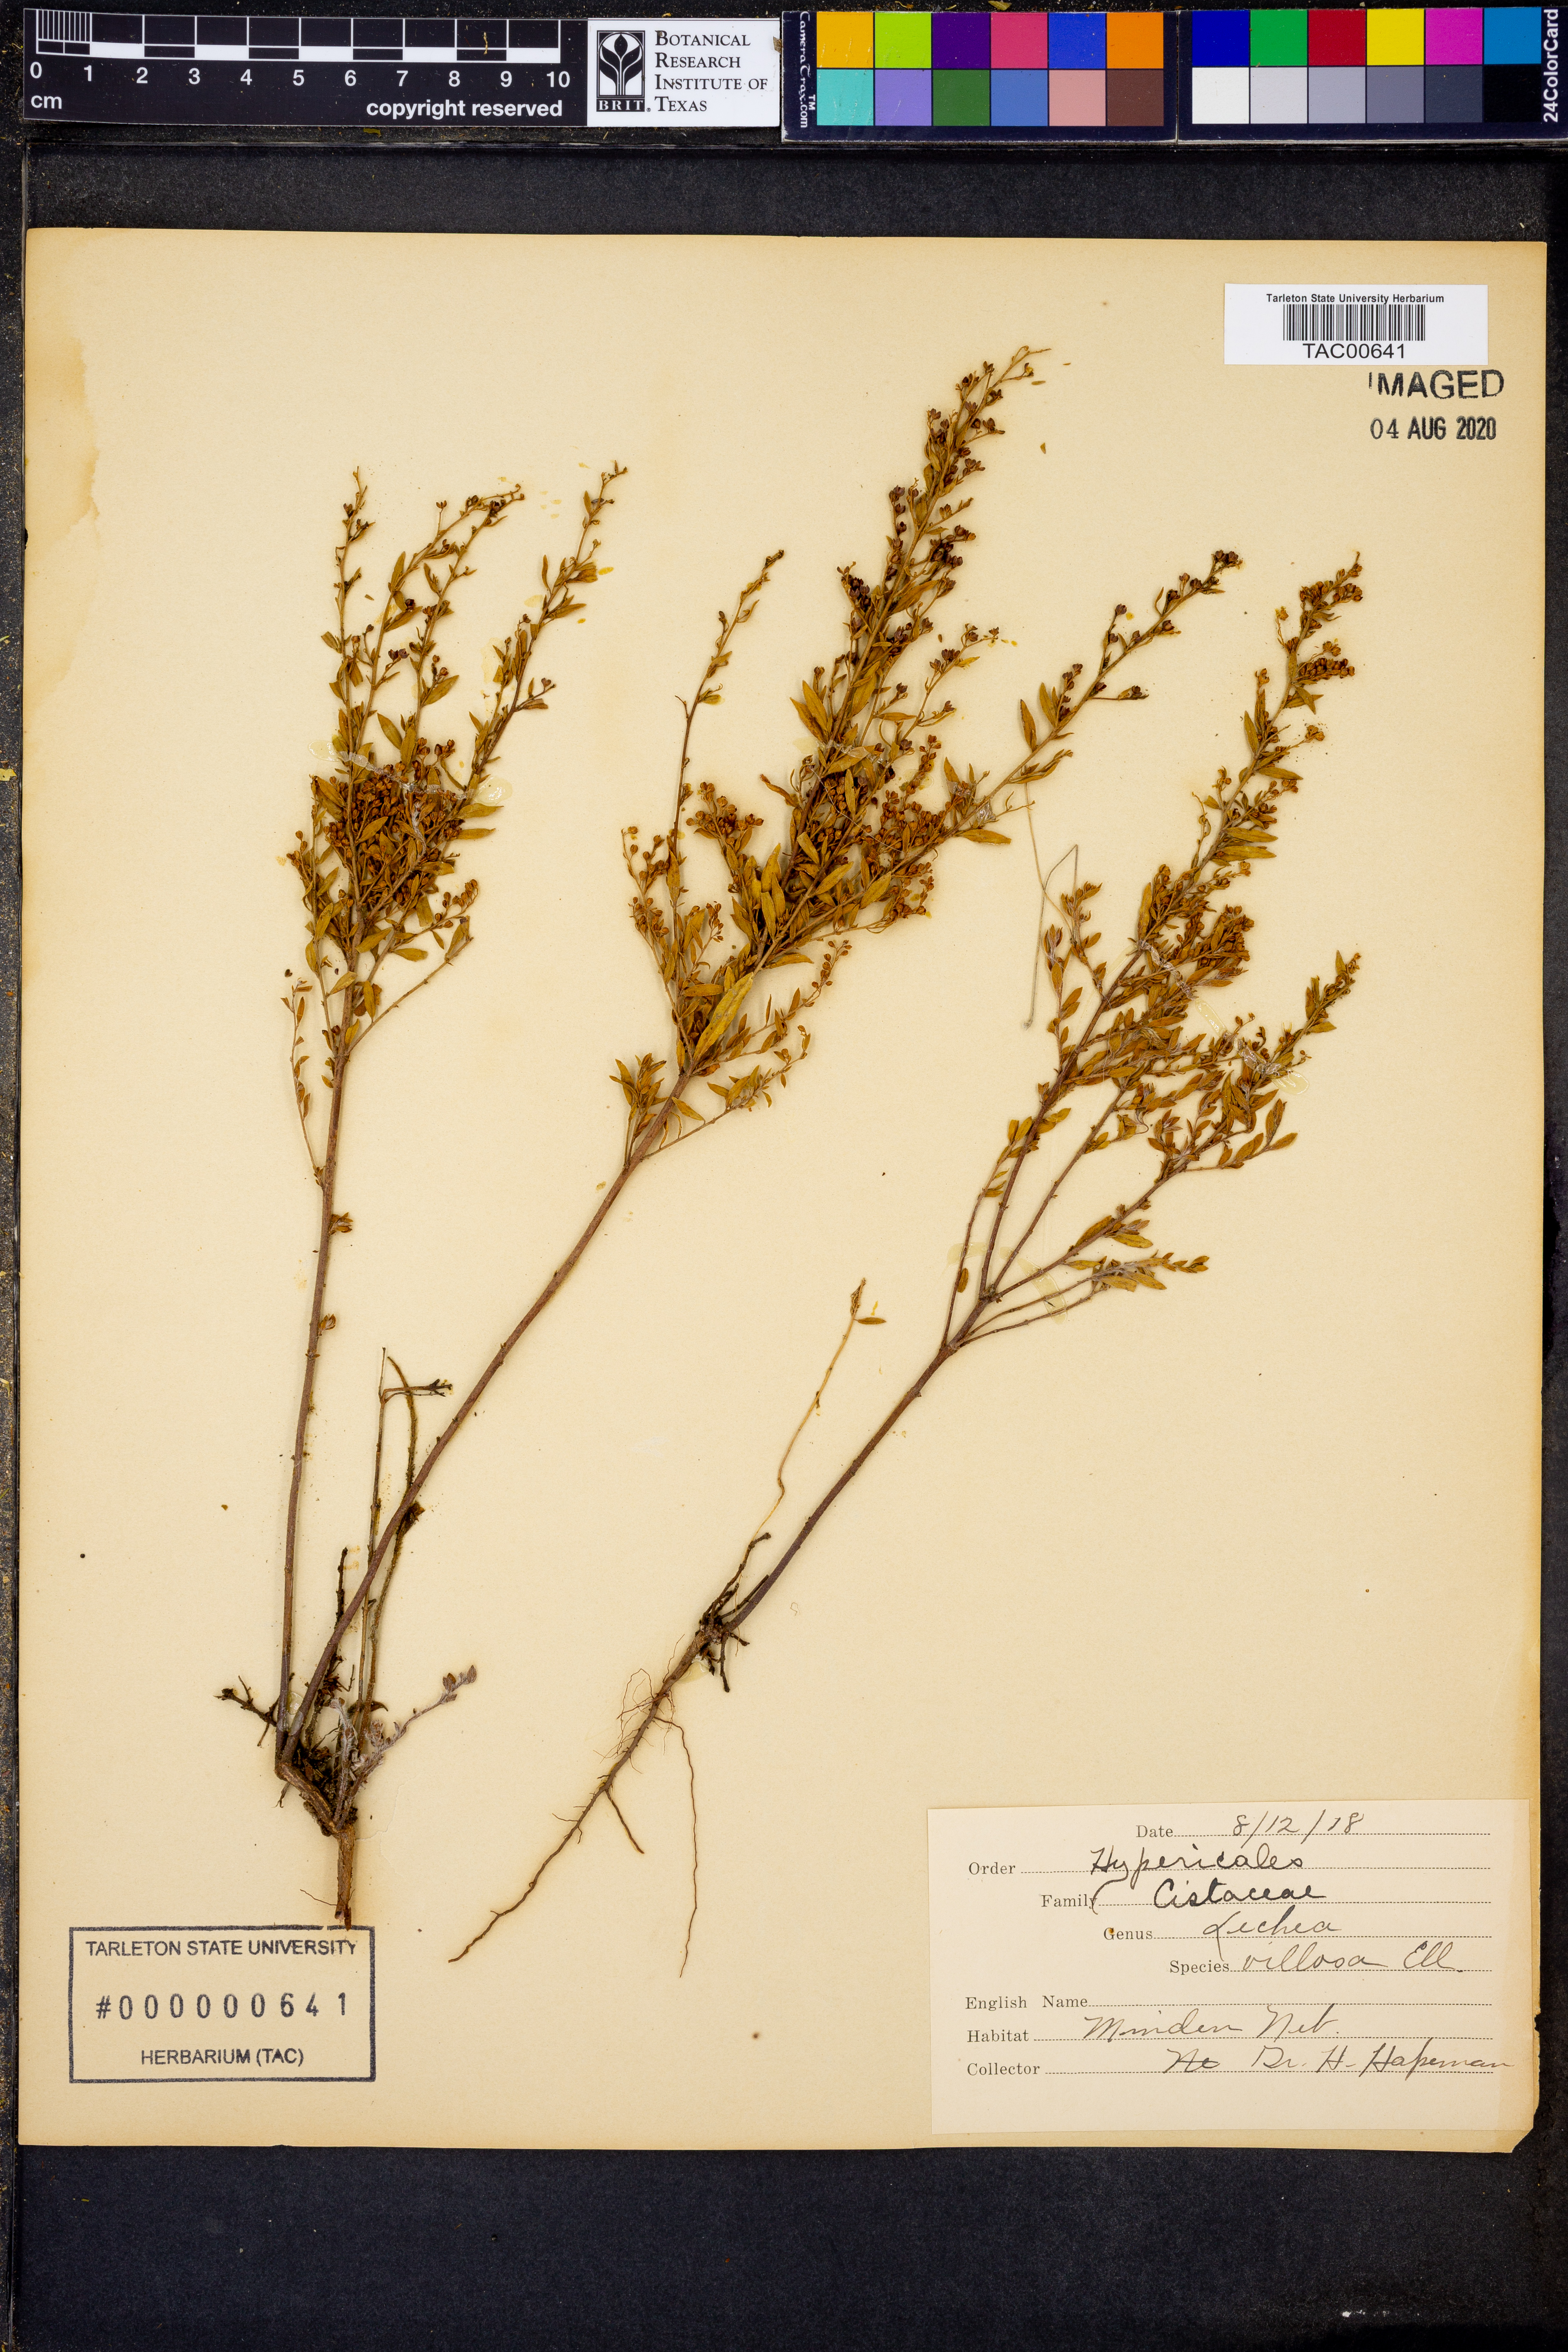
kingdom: Plantae
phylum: Tracheophyta
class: Magnoliopsida
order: Malvales
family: Cistaceae
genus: Lechea
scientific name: Lechea mucronata
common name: Hairy pinweed
